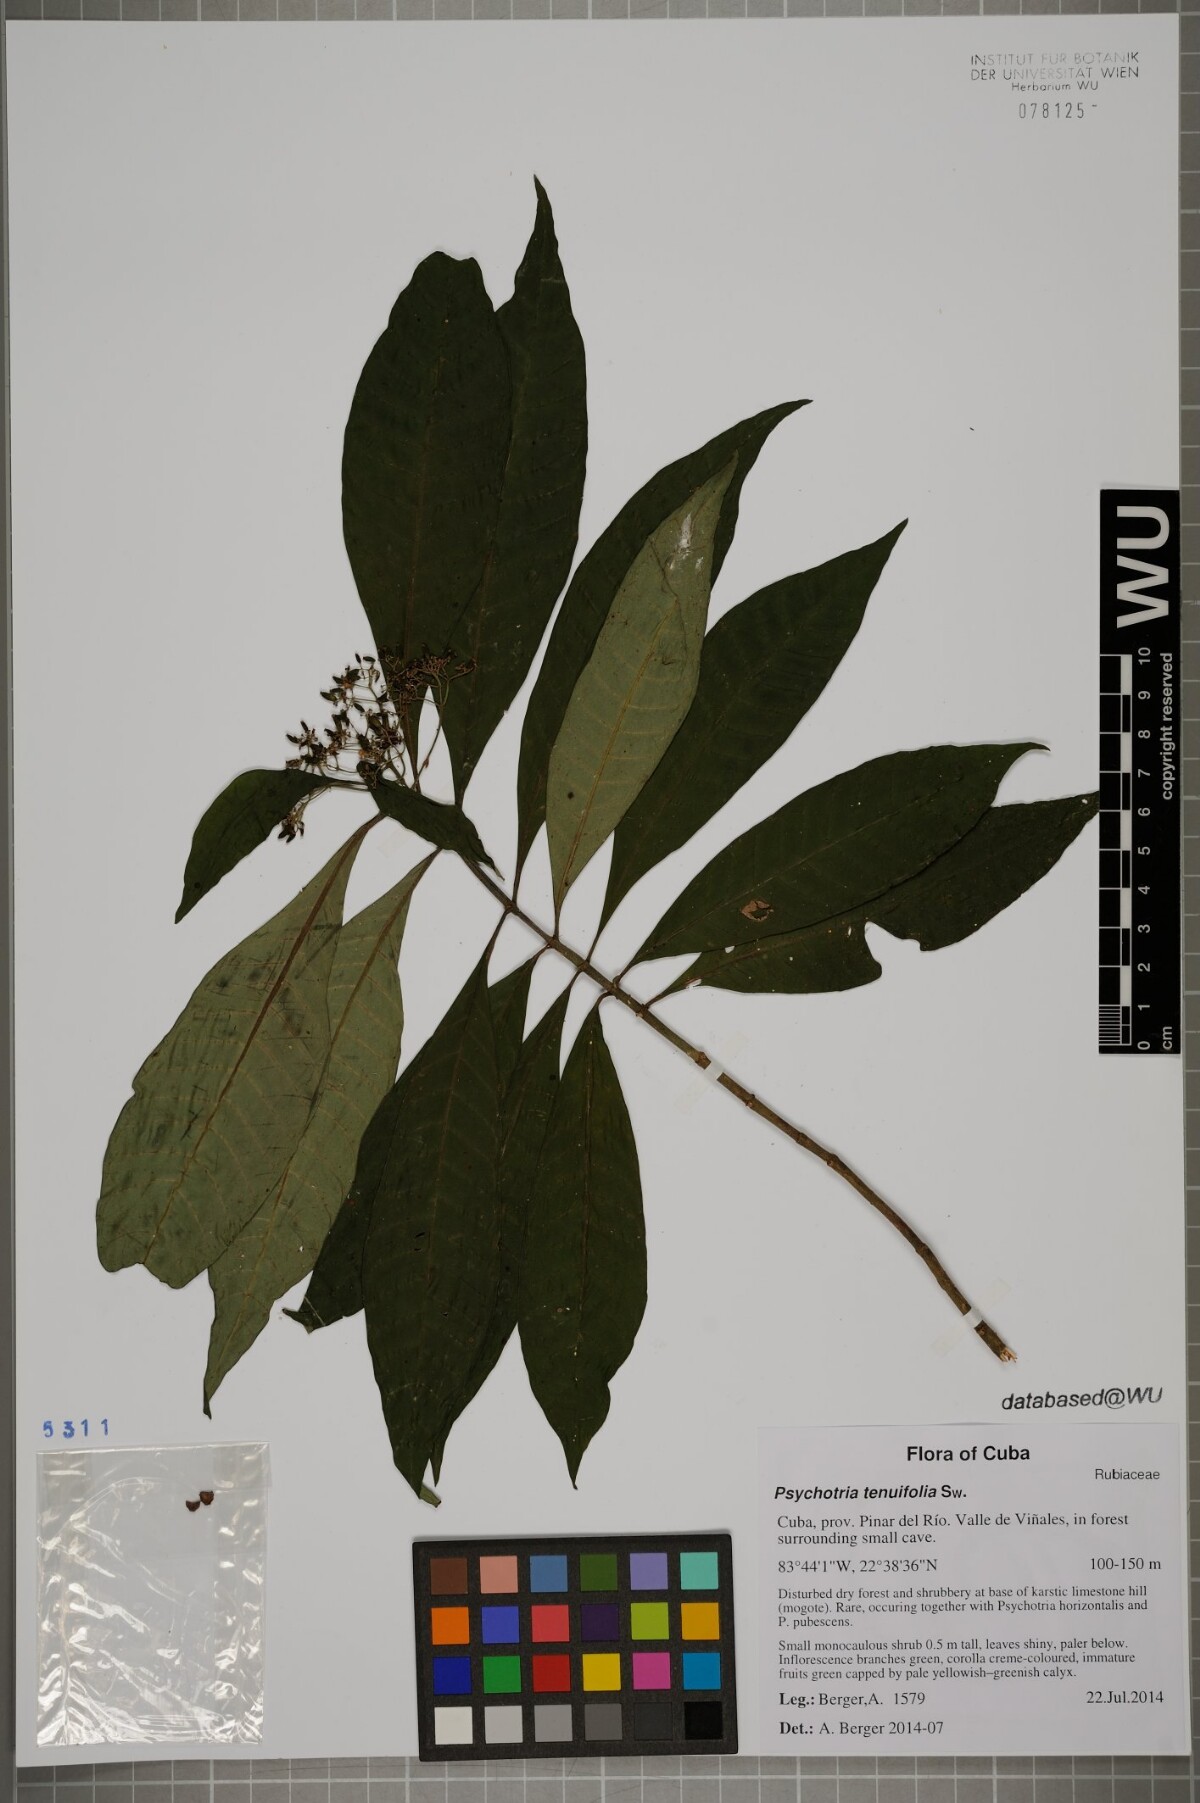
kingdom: Plantae
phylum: Tracheophyta
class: Magnoliopsida
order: Gentianales
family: Rubiaceae
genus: Psychotria
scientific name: Psychotria tenuifolia
